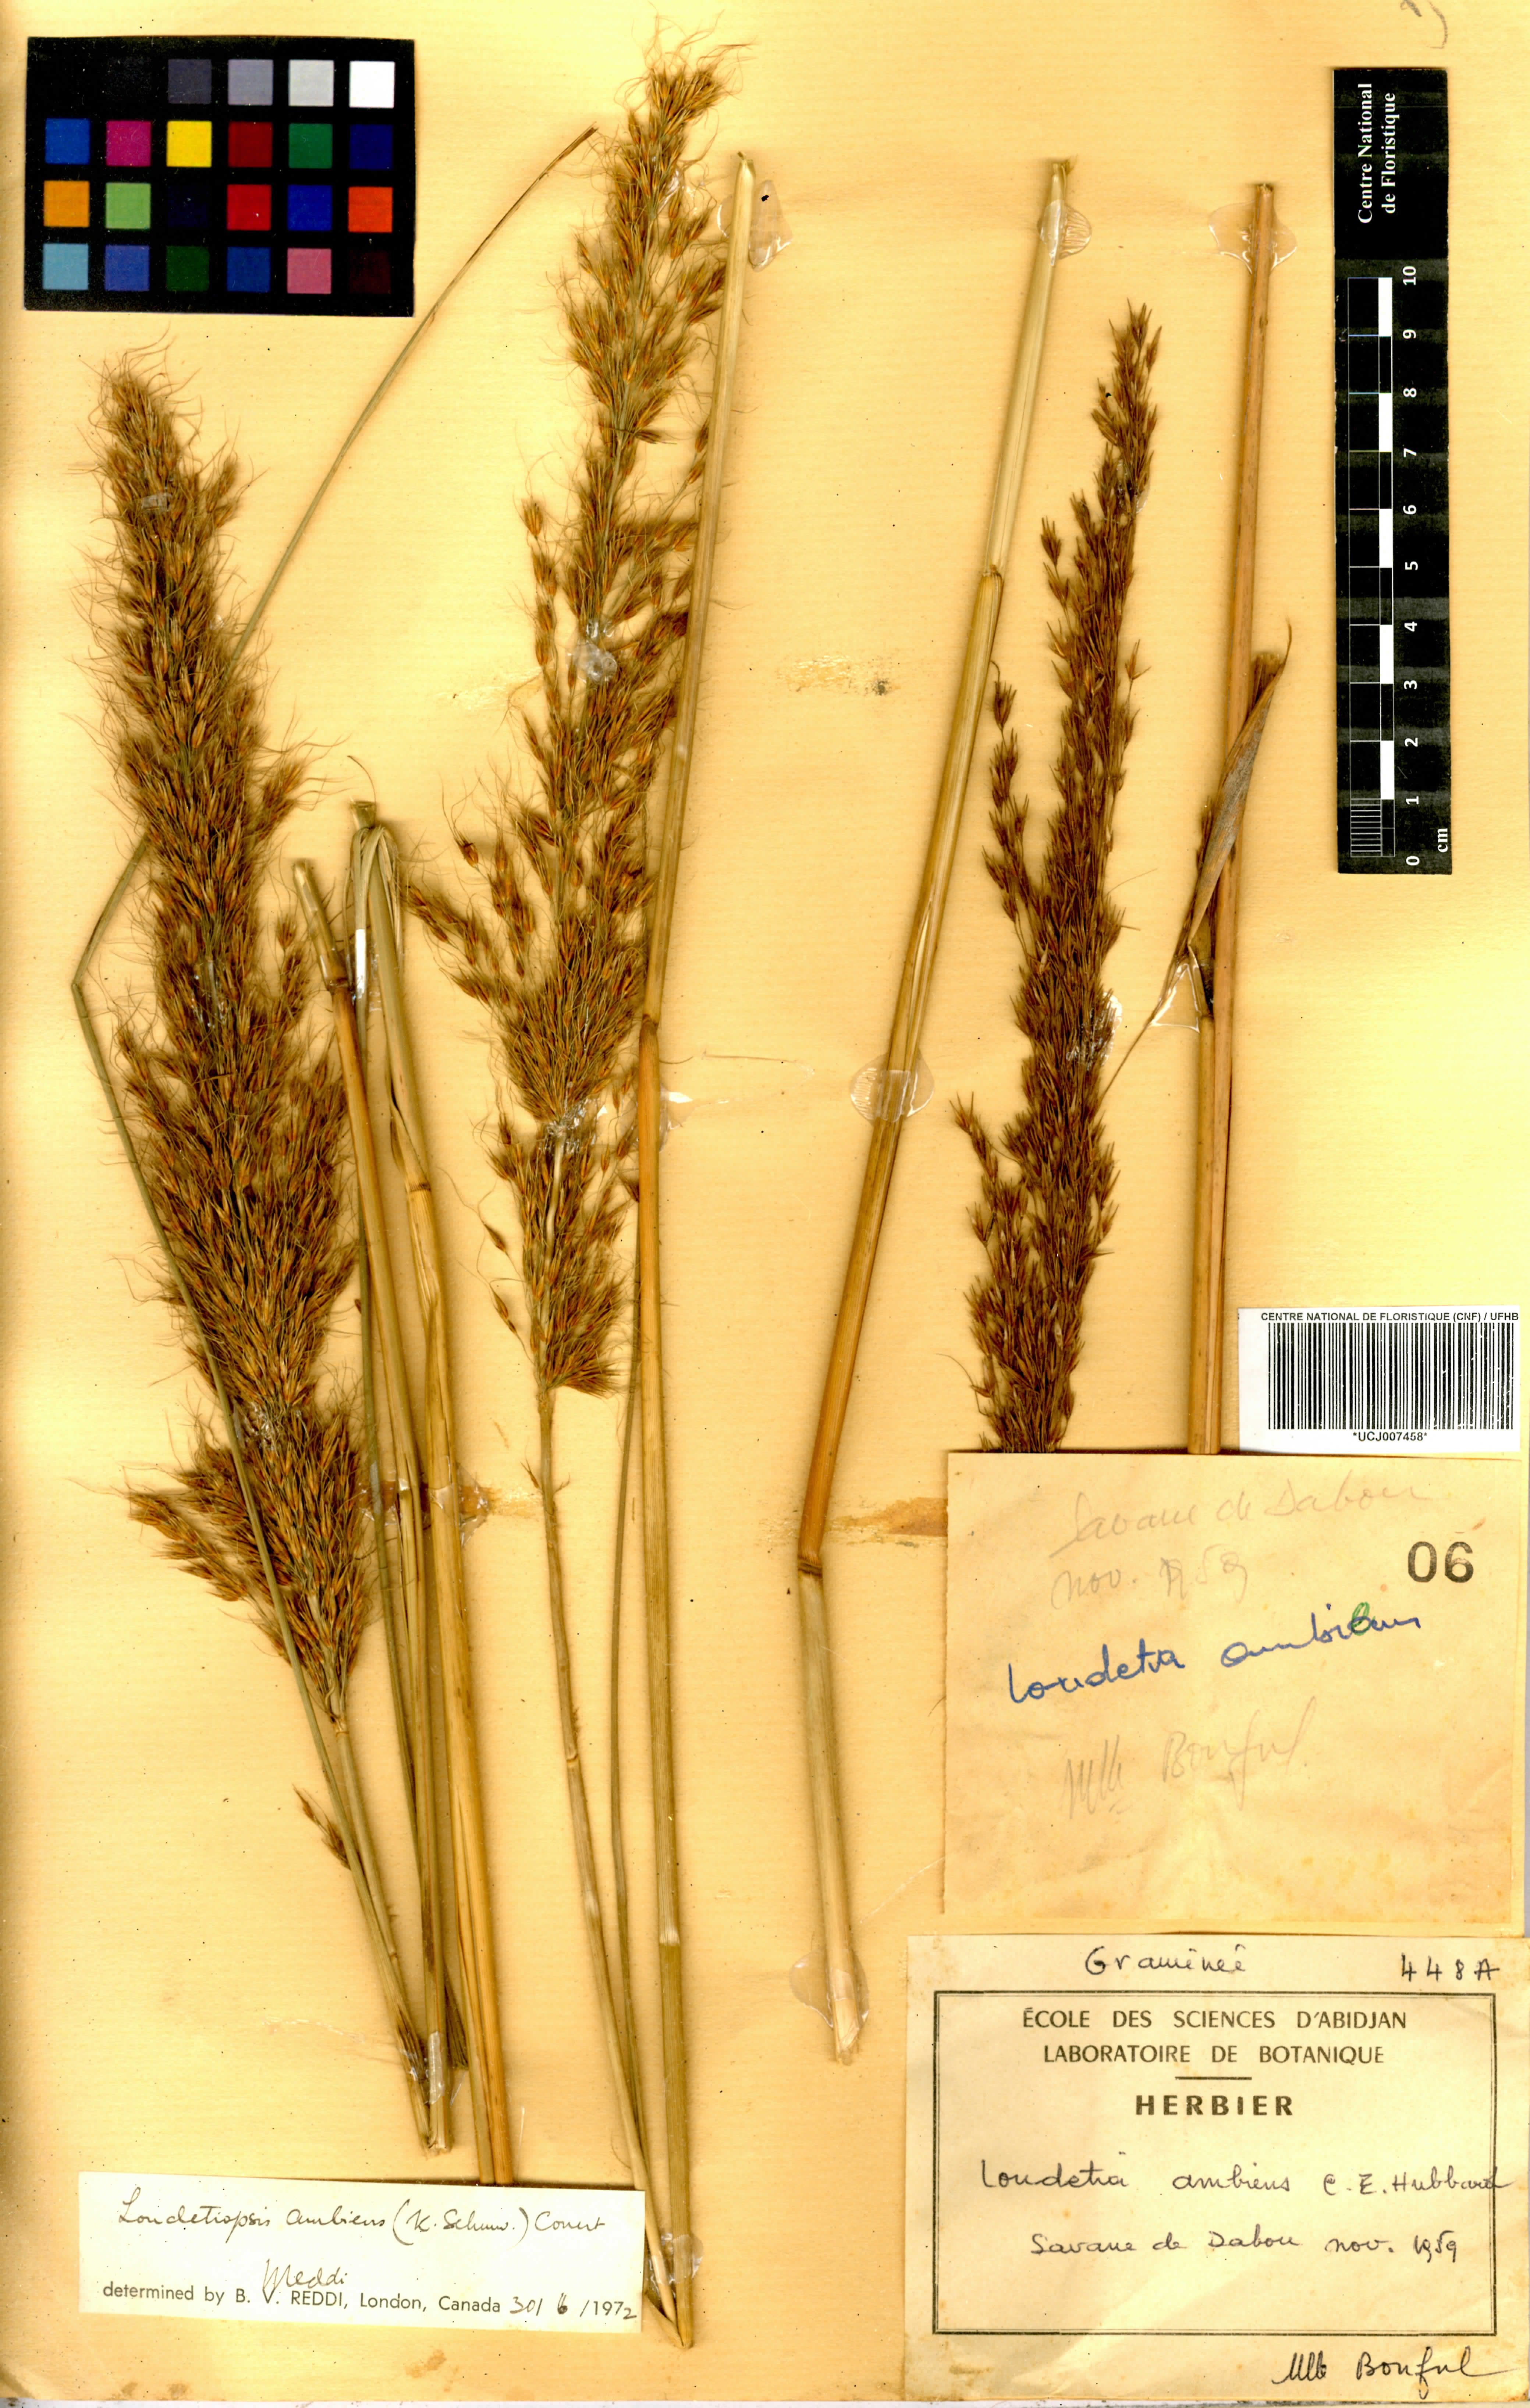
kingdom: Plantae
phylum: Tracheophyta
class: Liliopsida
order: Poales
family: Poaceae
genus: Loudetiopsis
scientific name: Loudetiopsis ambiens
